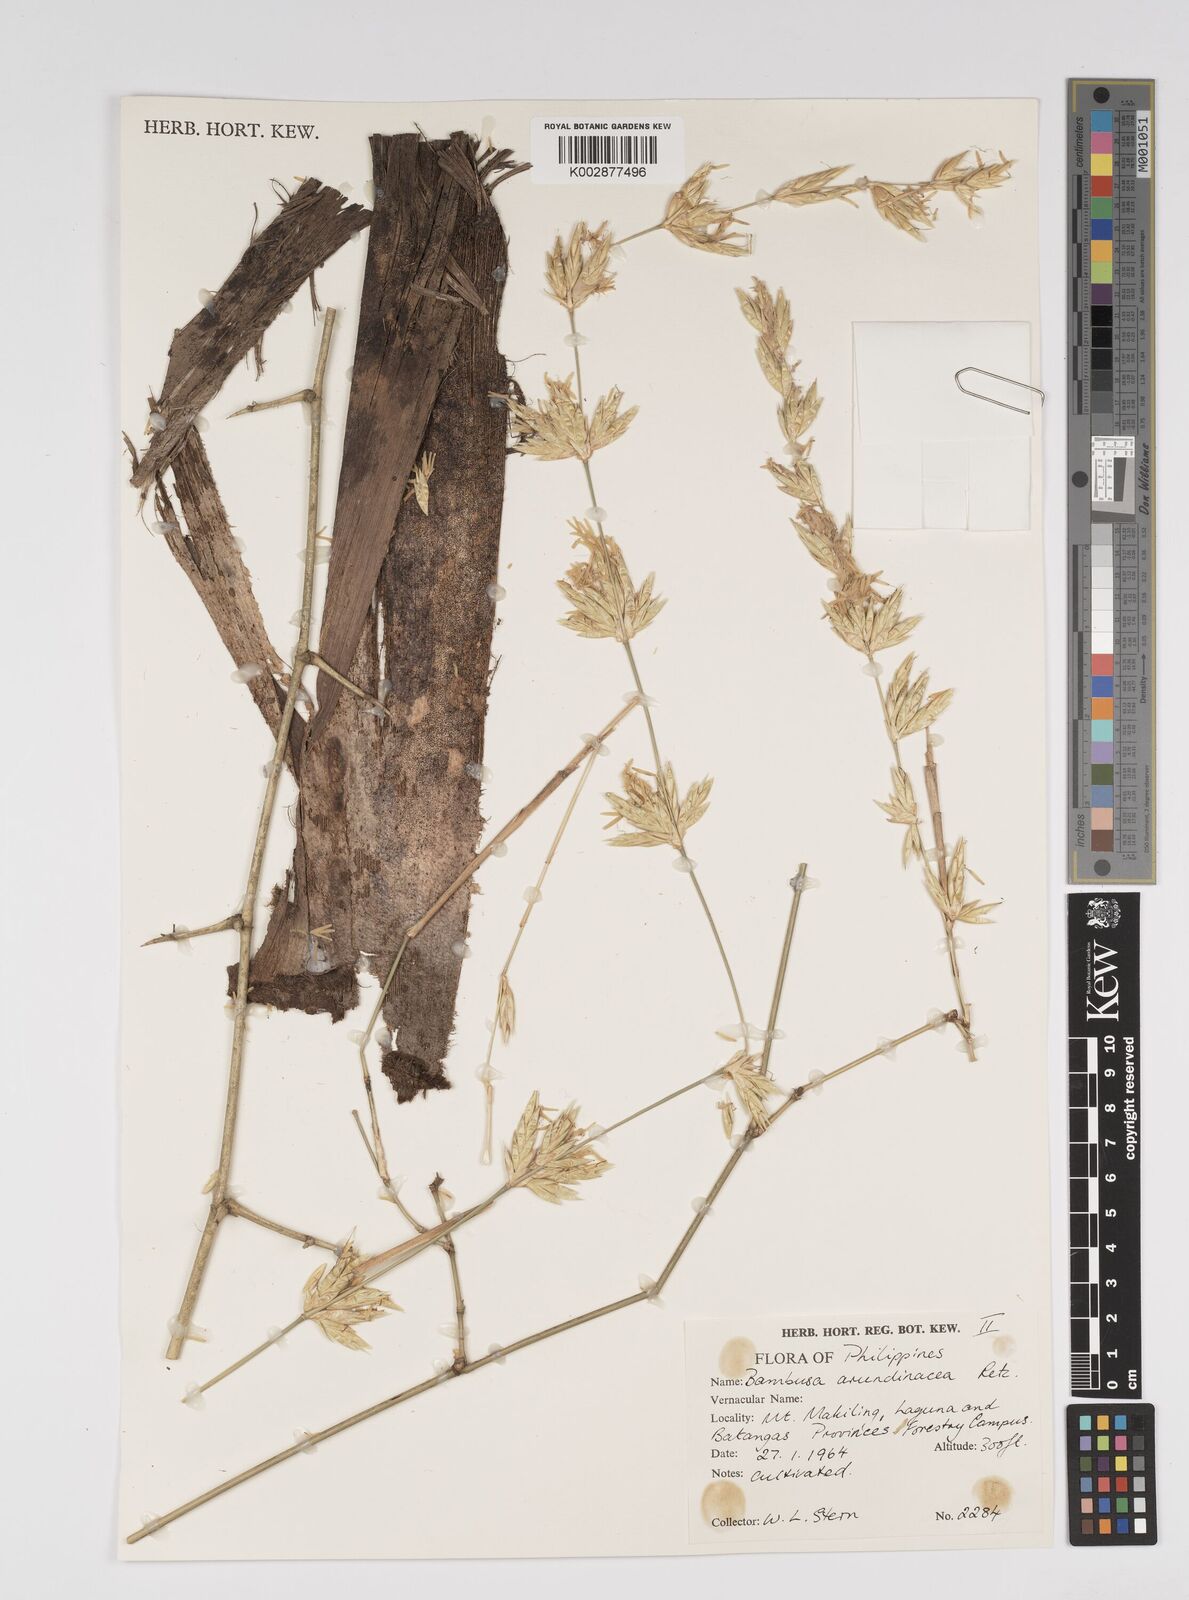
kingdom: Plantae
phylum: Tracheophyta
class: Liliopsida
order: Poales
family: Poaceae
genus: Bambusa
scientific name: Bambusa bambos
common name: Indian thorny bamboo
